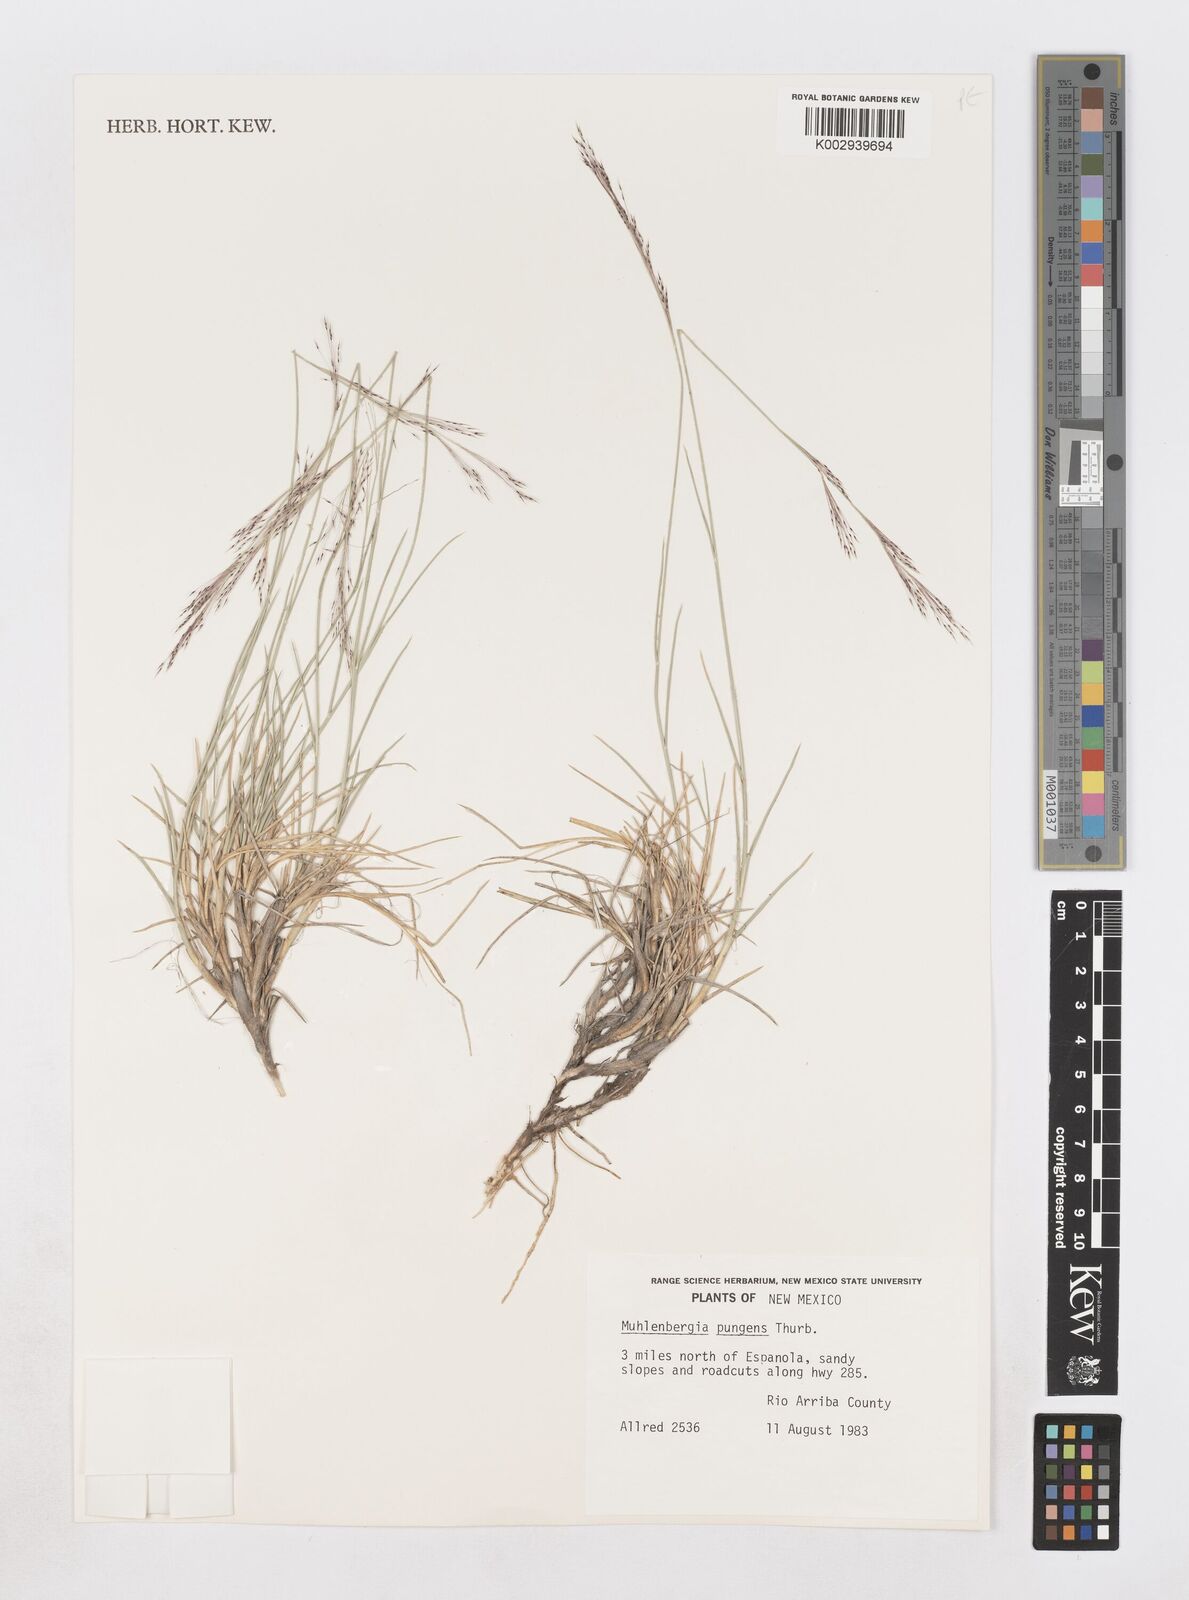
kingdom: Plantae
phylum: Tracheophyta
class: Liliopsida
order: Poales
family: Poaceae
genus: Muhlenbergia
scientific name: Muhlenbergia pungens
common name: Sandhill muhly
